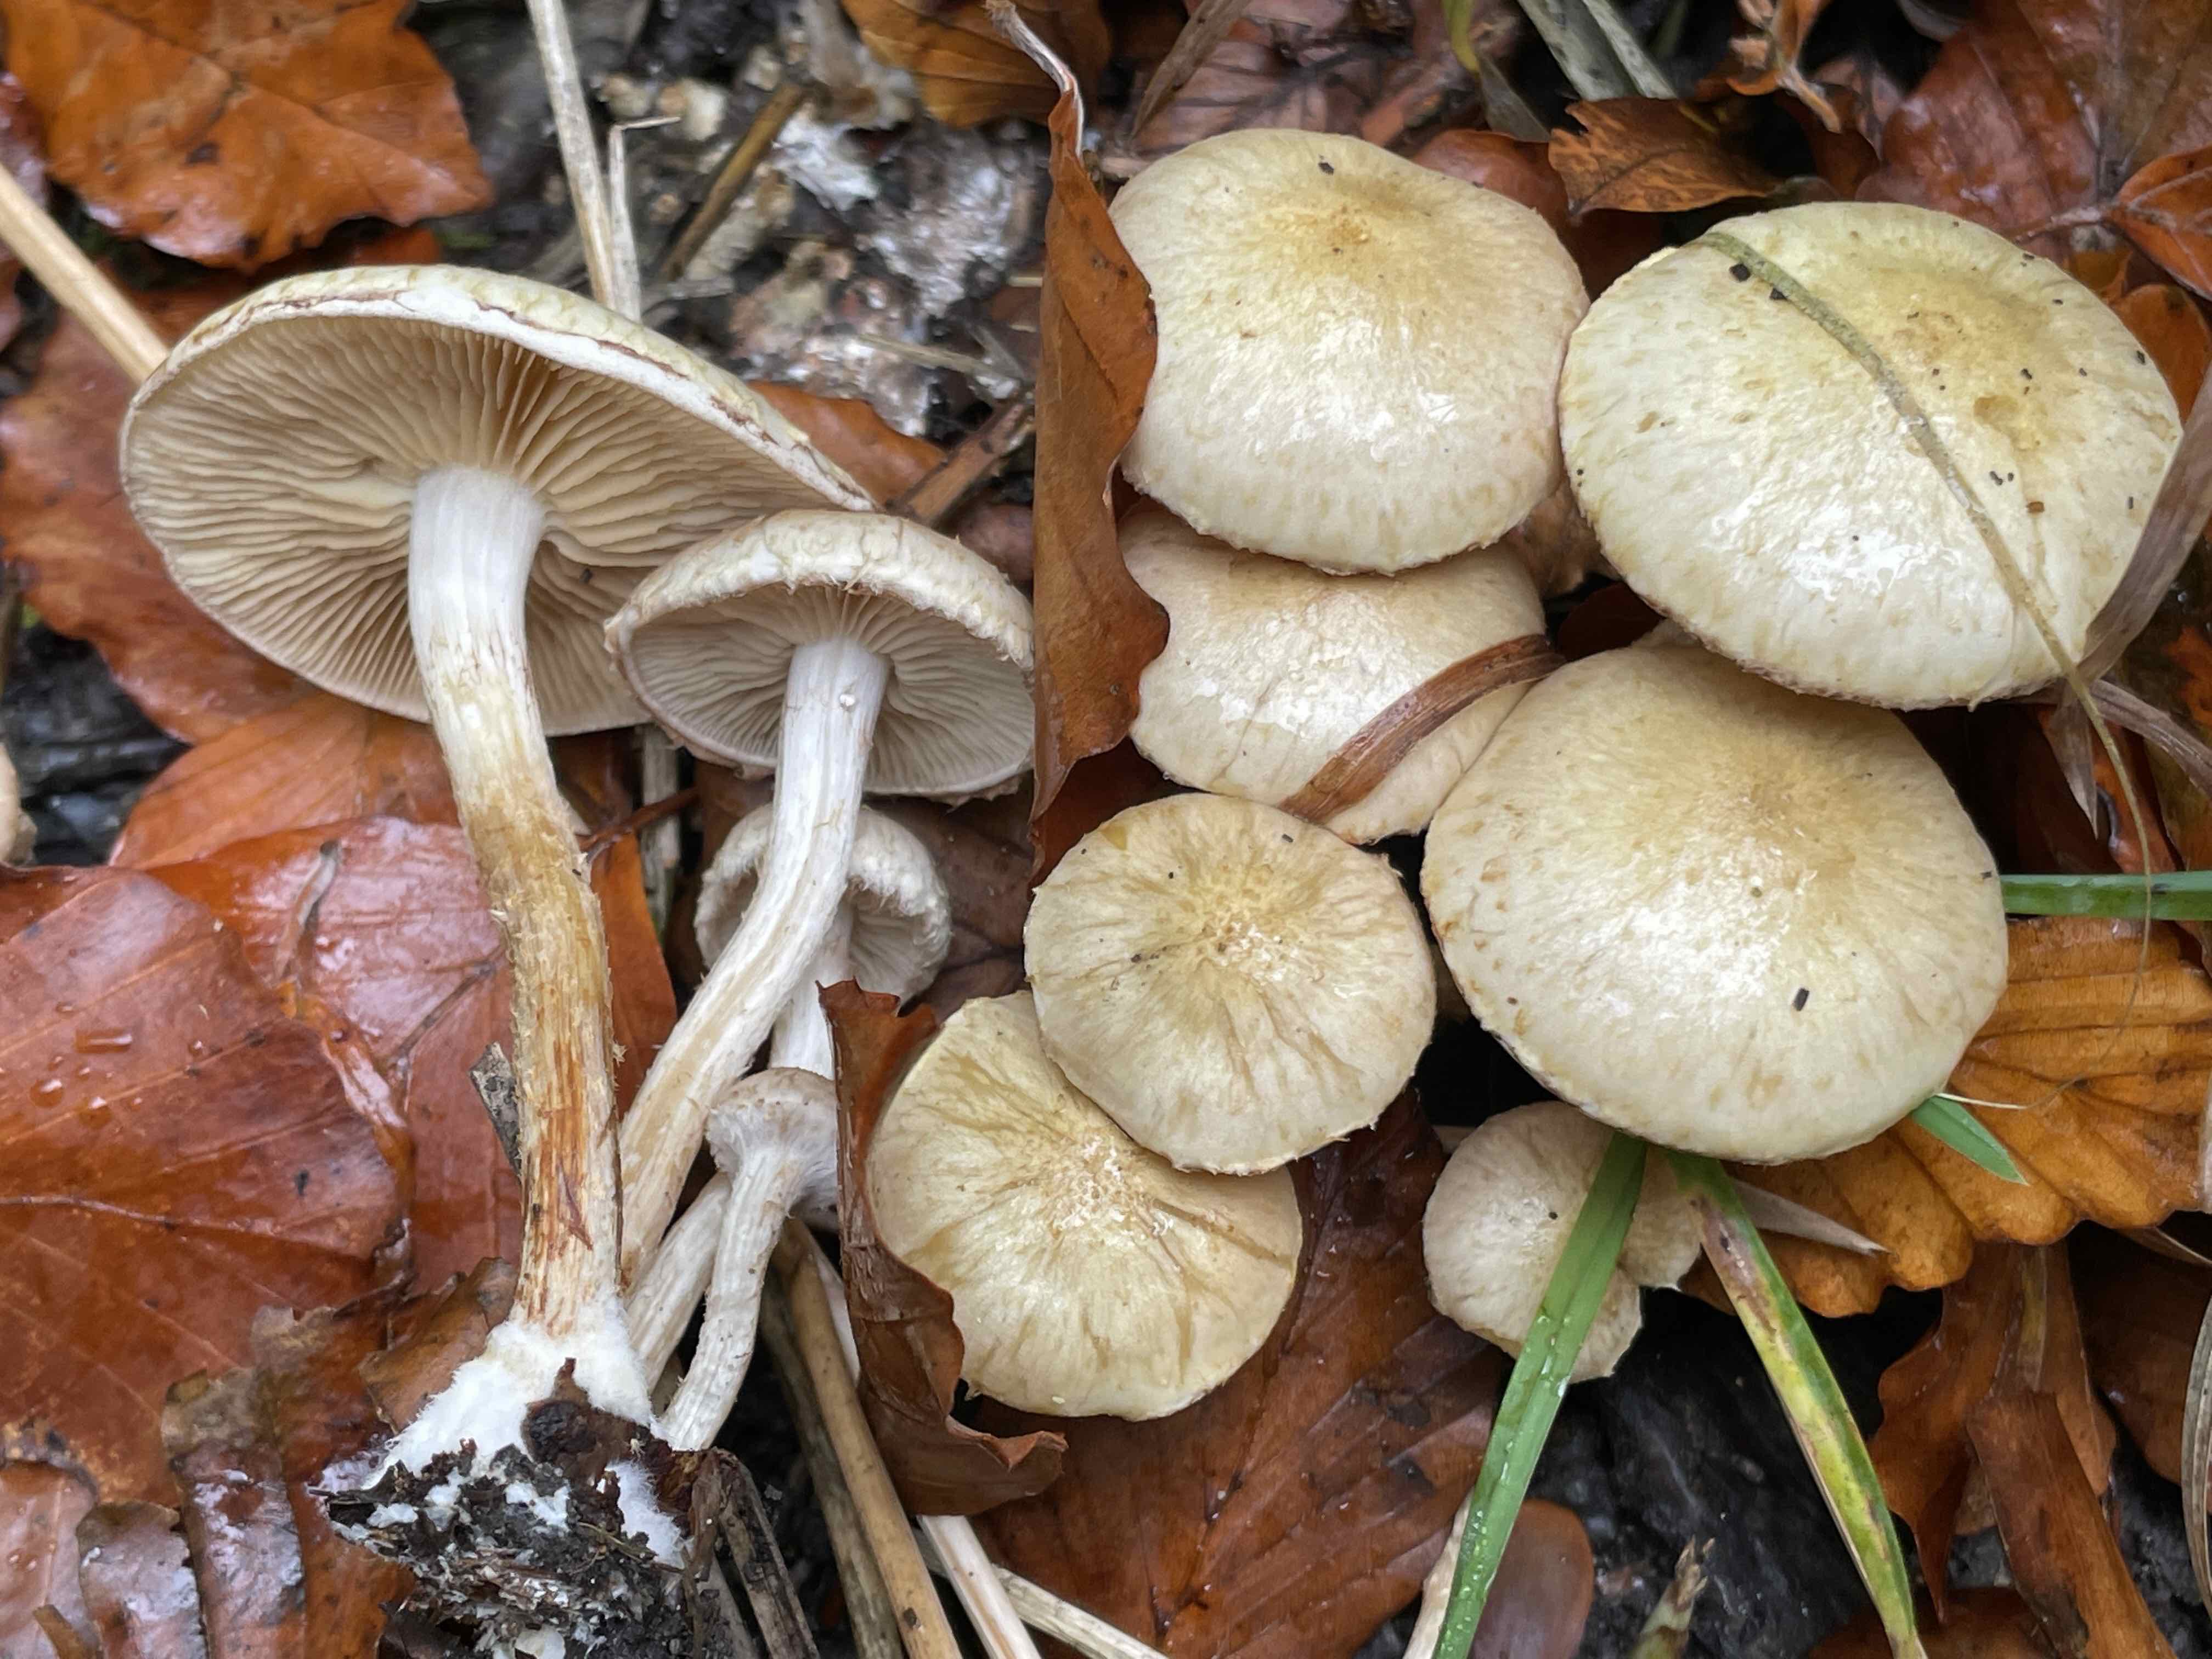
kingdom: Fungi
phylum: Basidiomycota
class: Agaricomycetes
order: Agaricales
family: Strophariaceae
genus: Pholiota
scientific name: Pholiota gummosa
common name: grøngul skælhat
